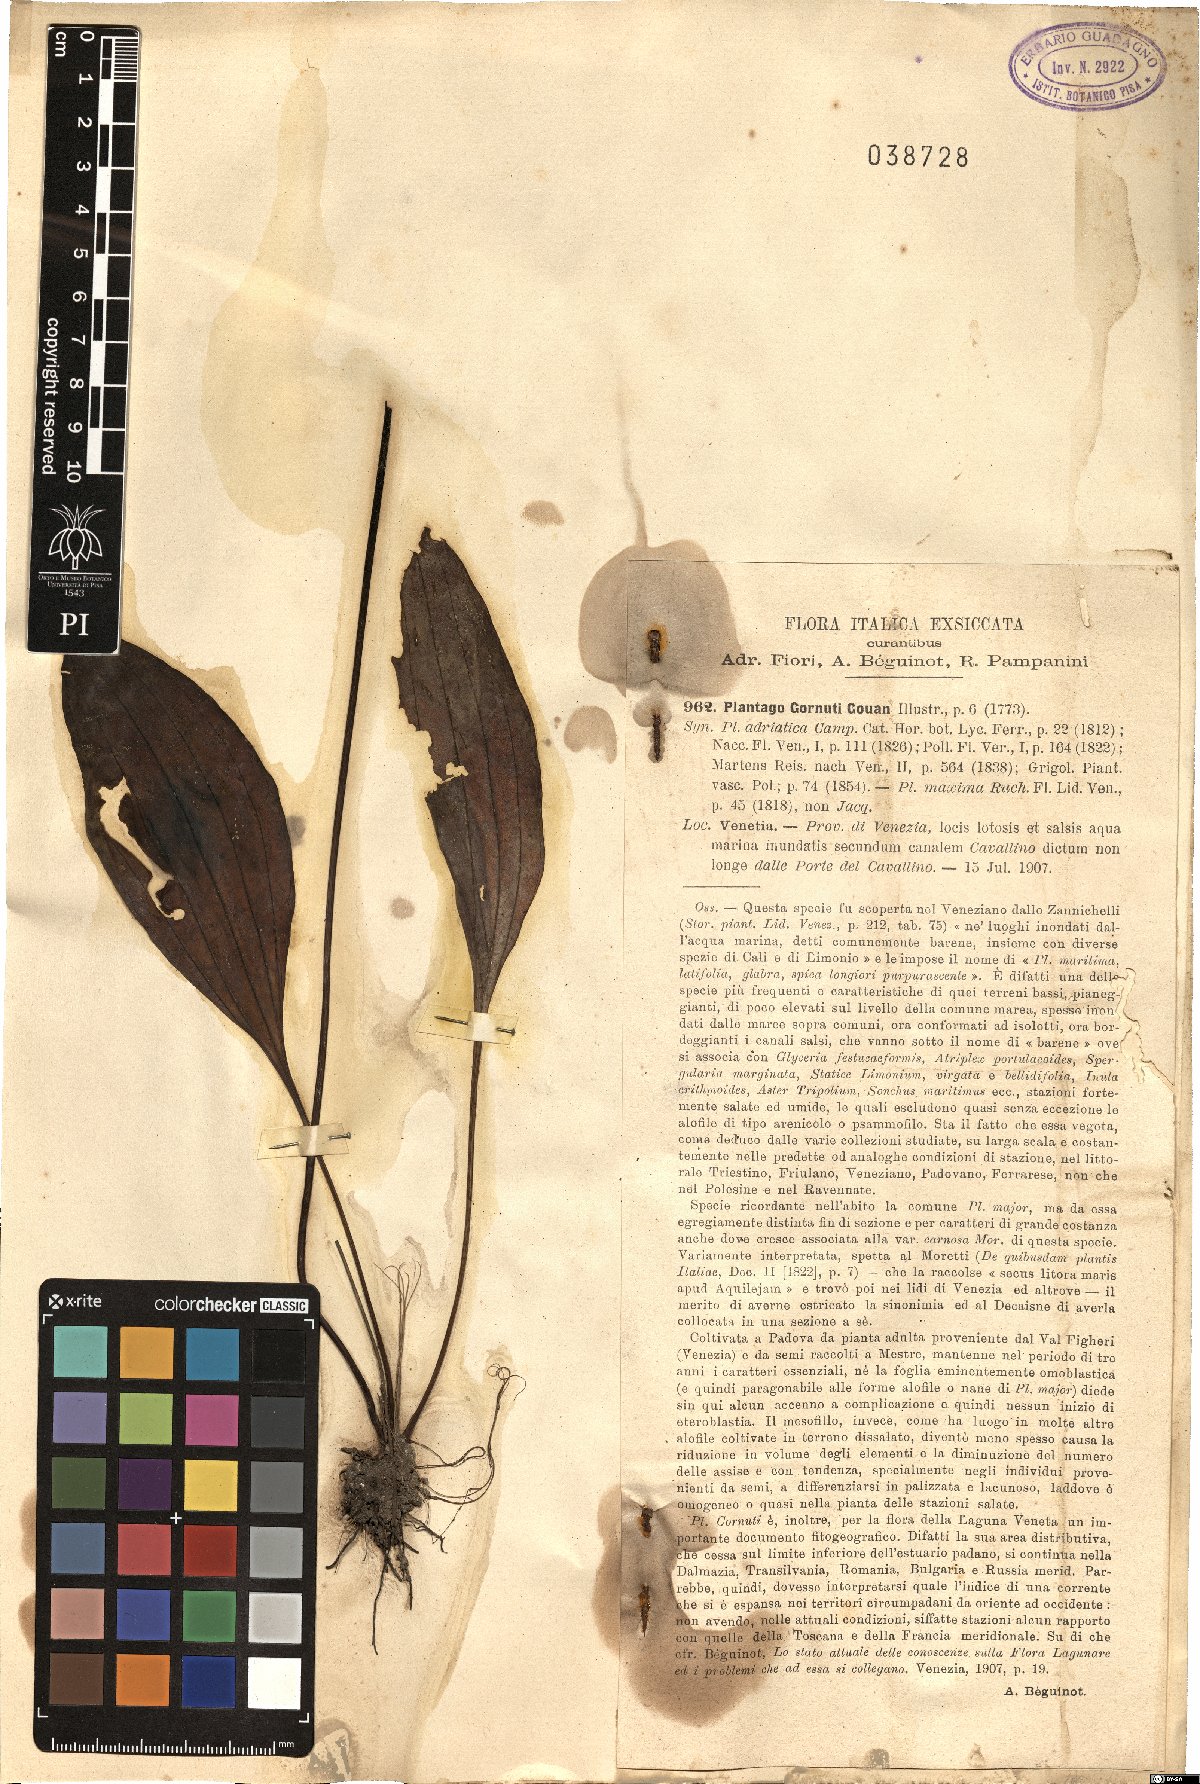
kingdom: Plantae
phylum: Tracheophyta
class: Magnoliopsida
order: Lamiales
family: Plantaginaceae
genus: Plantago
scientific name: Plantago cornuti
